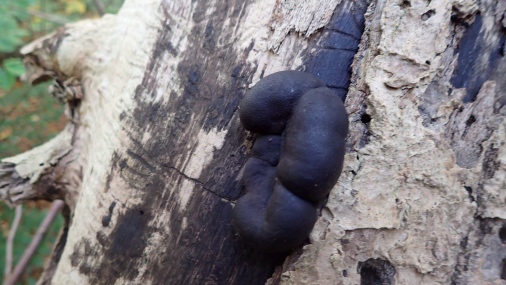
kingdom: Fungi
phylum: Ascomycota
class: Sordariomycetes
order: Xylariales
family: Hypoxylaceae
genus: Daldinia
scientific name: Daldinia concentrica
